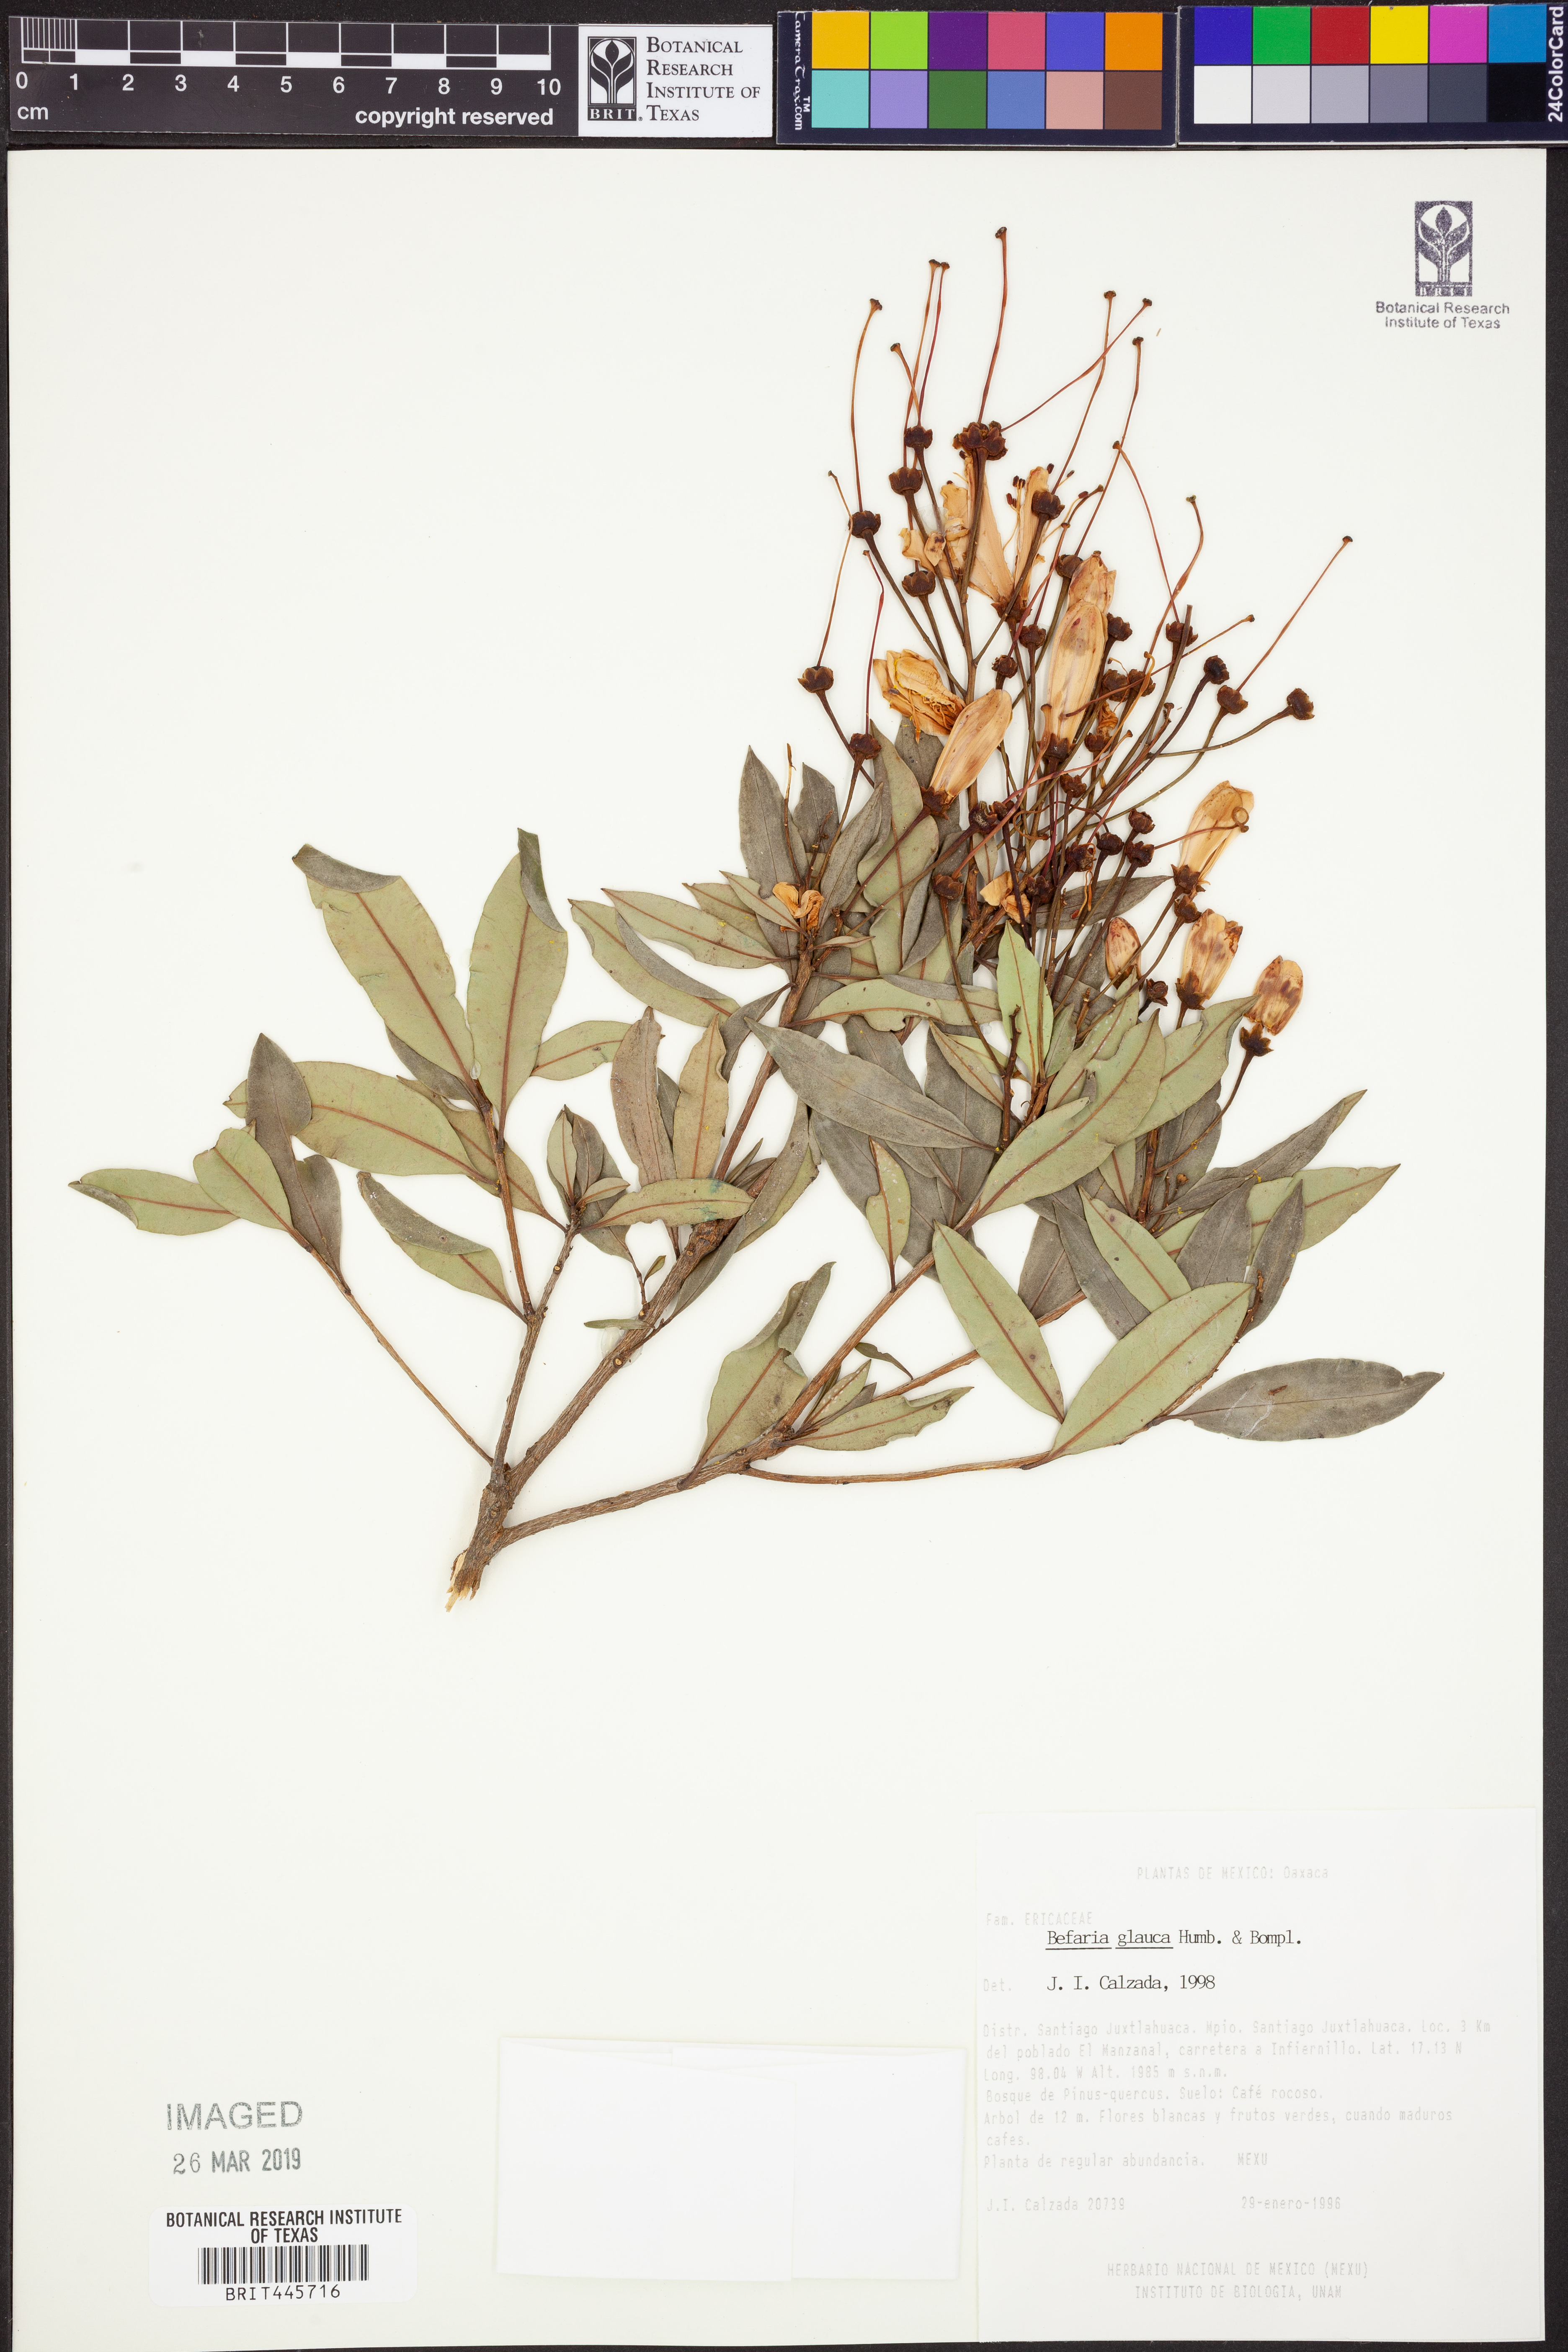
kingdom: Plantae
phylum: Tracheophyta
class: Magnoliopsida
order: Ericales
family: Ericaceae
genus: Bejaria
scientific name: Bejaria aestuans
